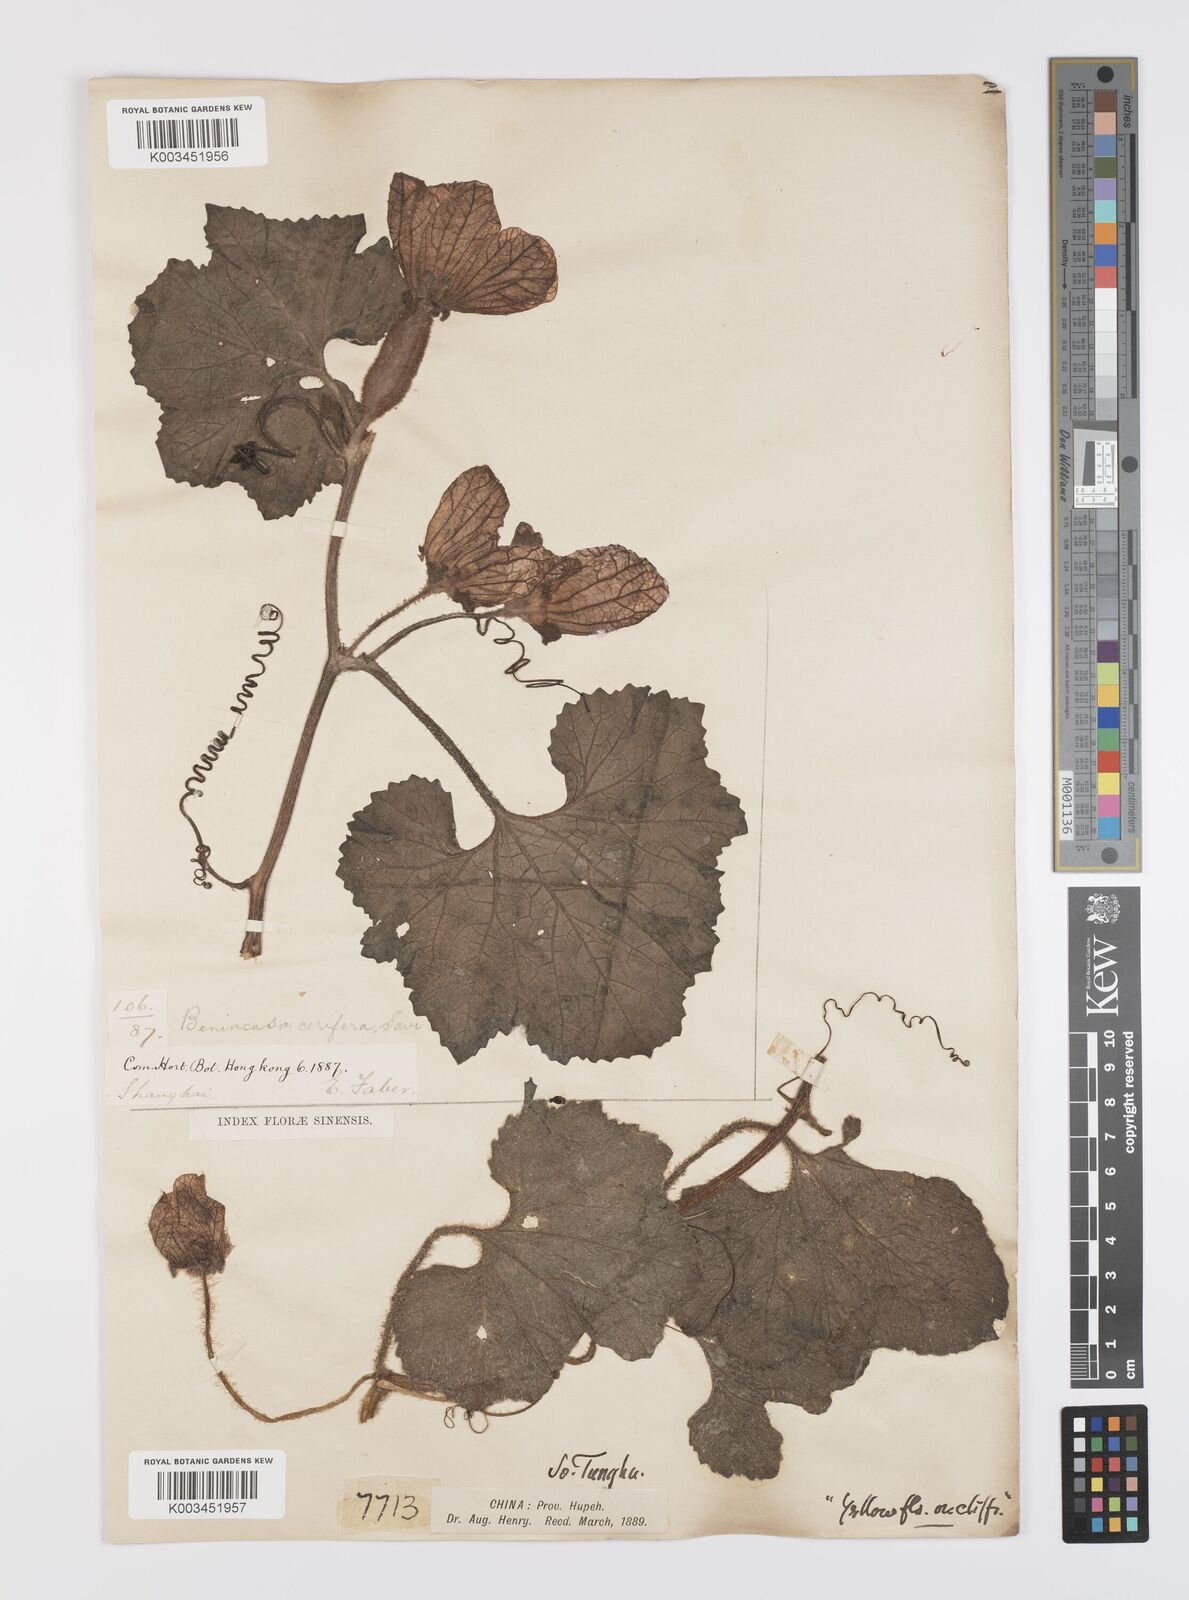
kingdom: Plantae
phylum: Tracheophyta
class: Magnoliopsida
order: Cucurbitales
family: Cucurbitaceae
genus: Benincasa
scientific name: Benincasa hispida
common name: Chinese-watermelon
